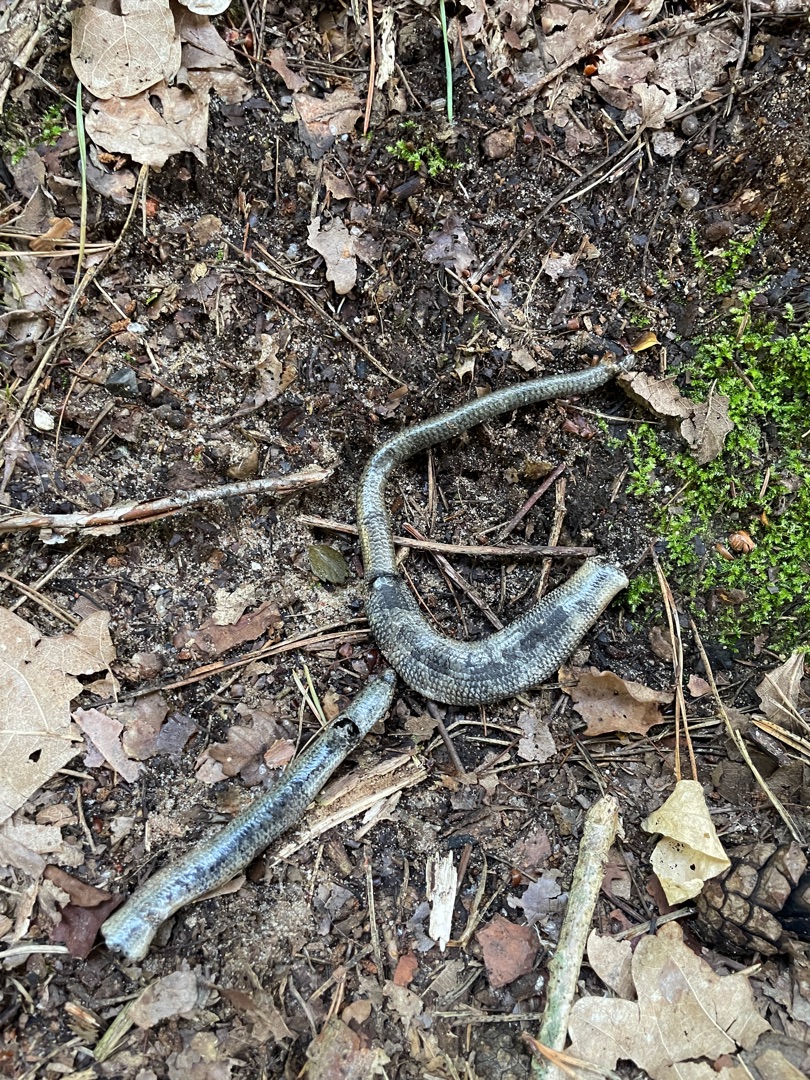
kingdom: Animalia
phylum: Chordata
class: Squamata
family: Anguidae
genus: Anguis
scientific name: Anguis fragilis
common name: Stålorm
